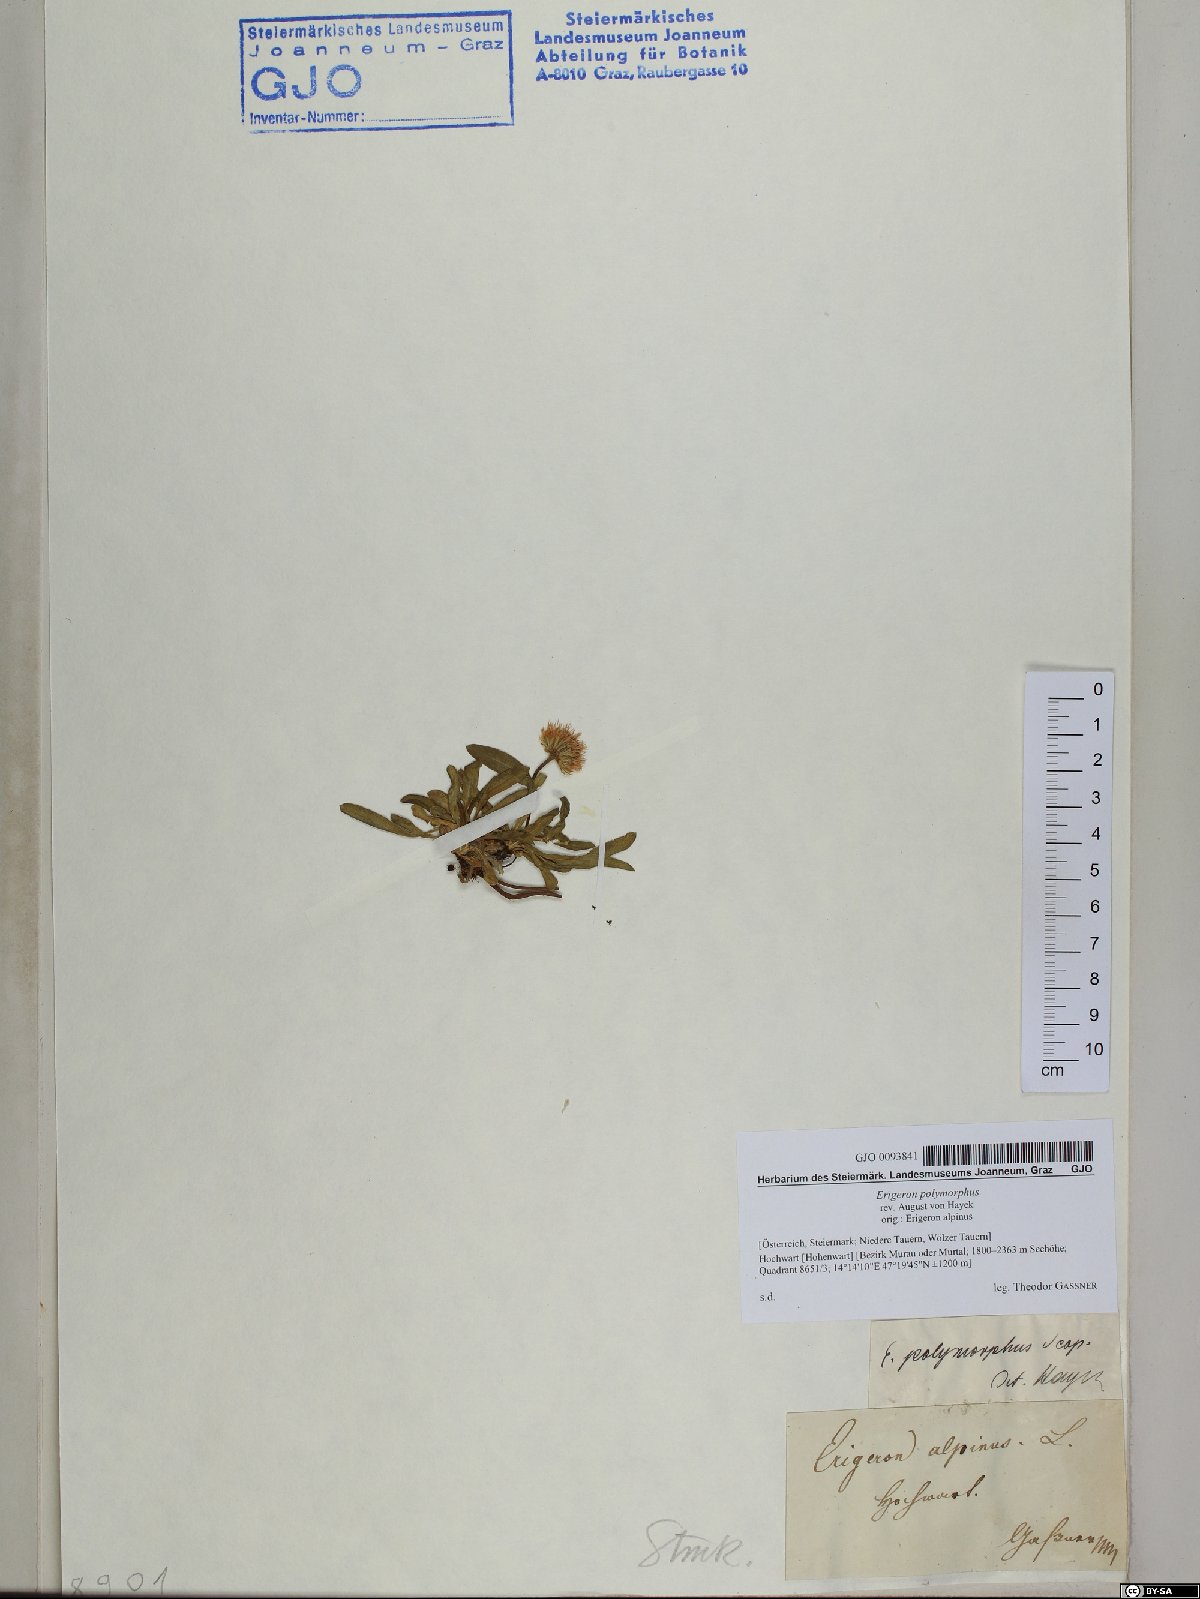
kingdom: Plantae
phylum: Tracheophyta
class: Magnoliopsida
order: Asterales
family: Asteraceae
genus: Erigeron
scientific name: Erigeron alpinus
